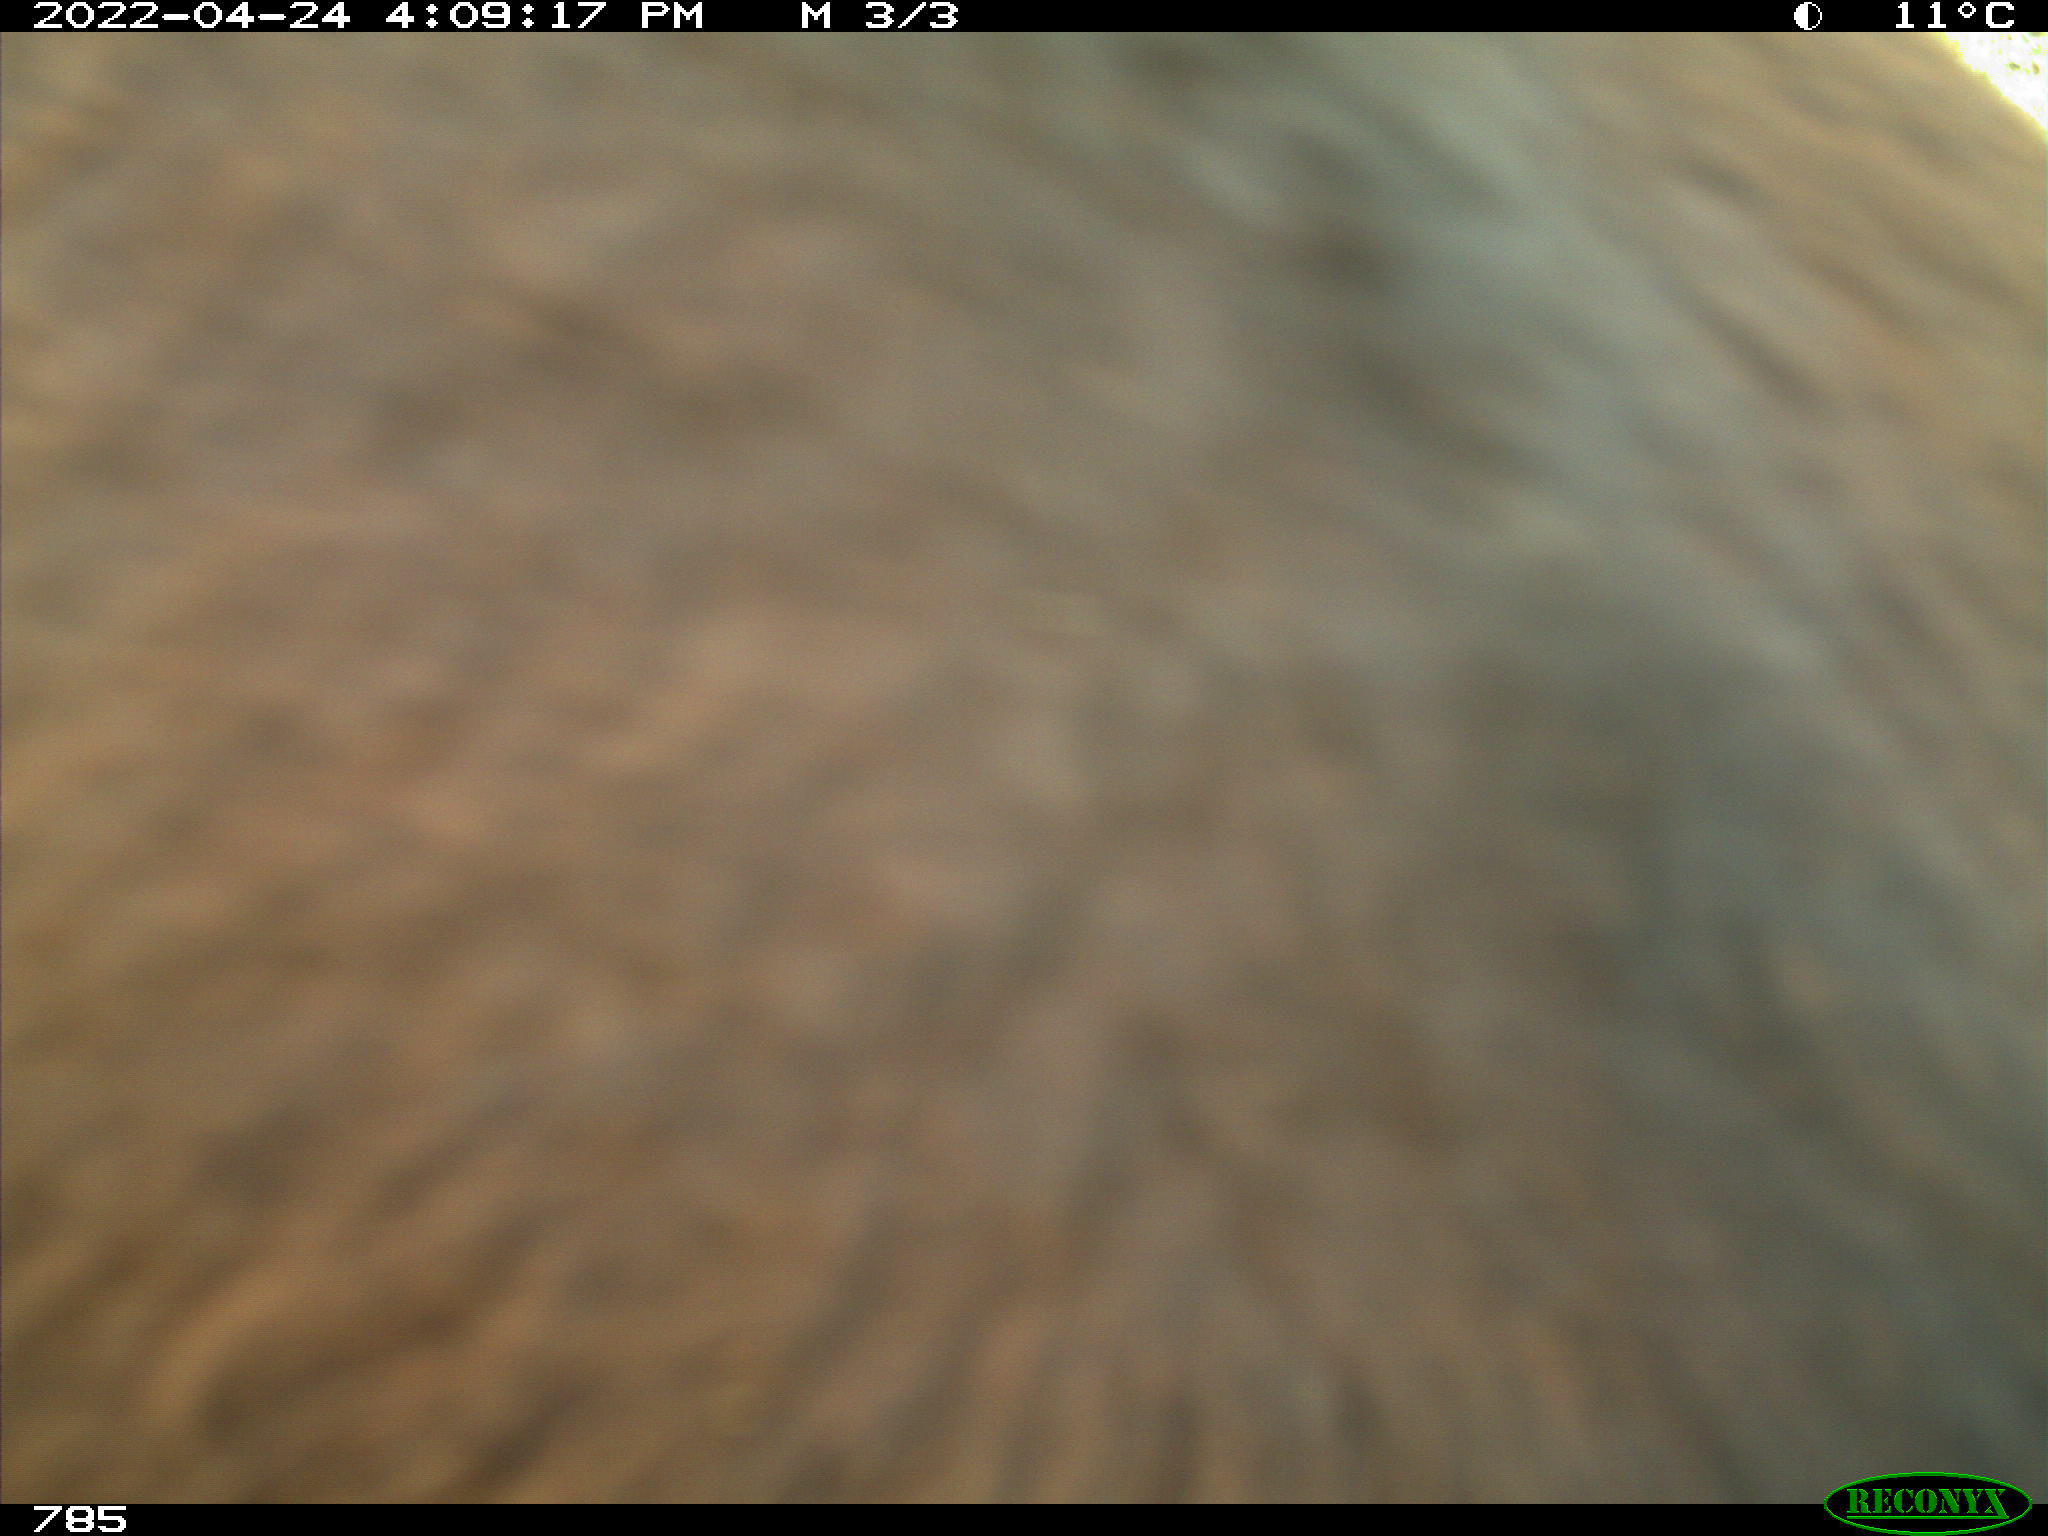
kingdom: Animalia
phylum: Chordata
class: Mammalia
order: Perissodactyla
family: Equidae
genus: Equus
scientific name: Equus caballus
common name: Horse
